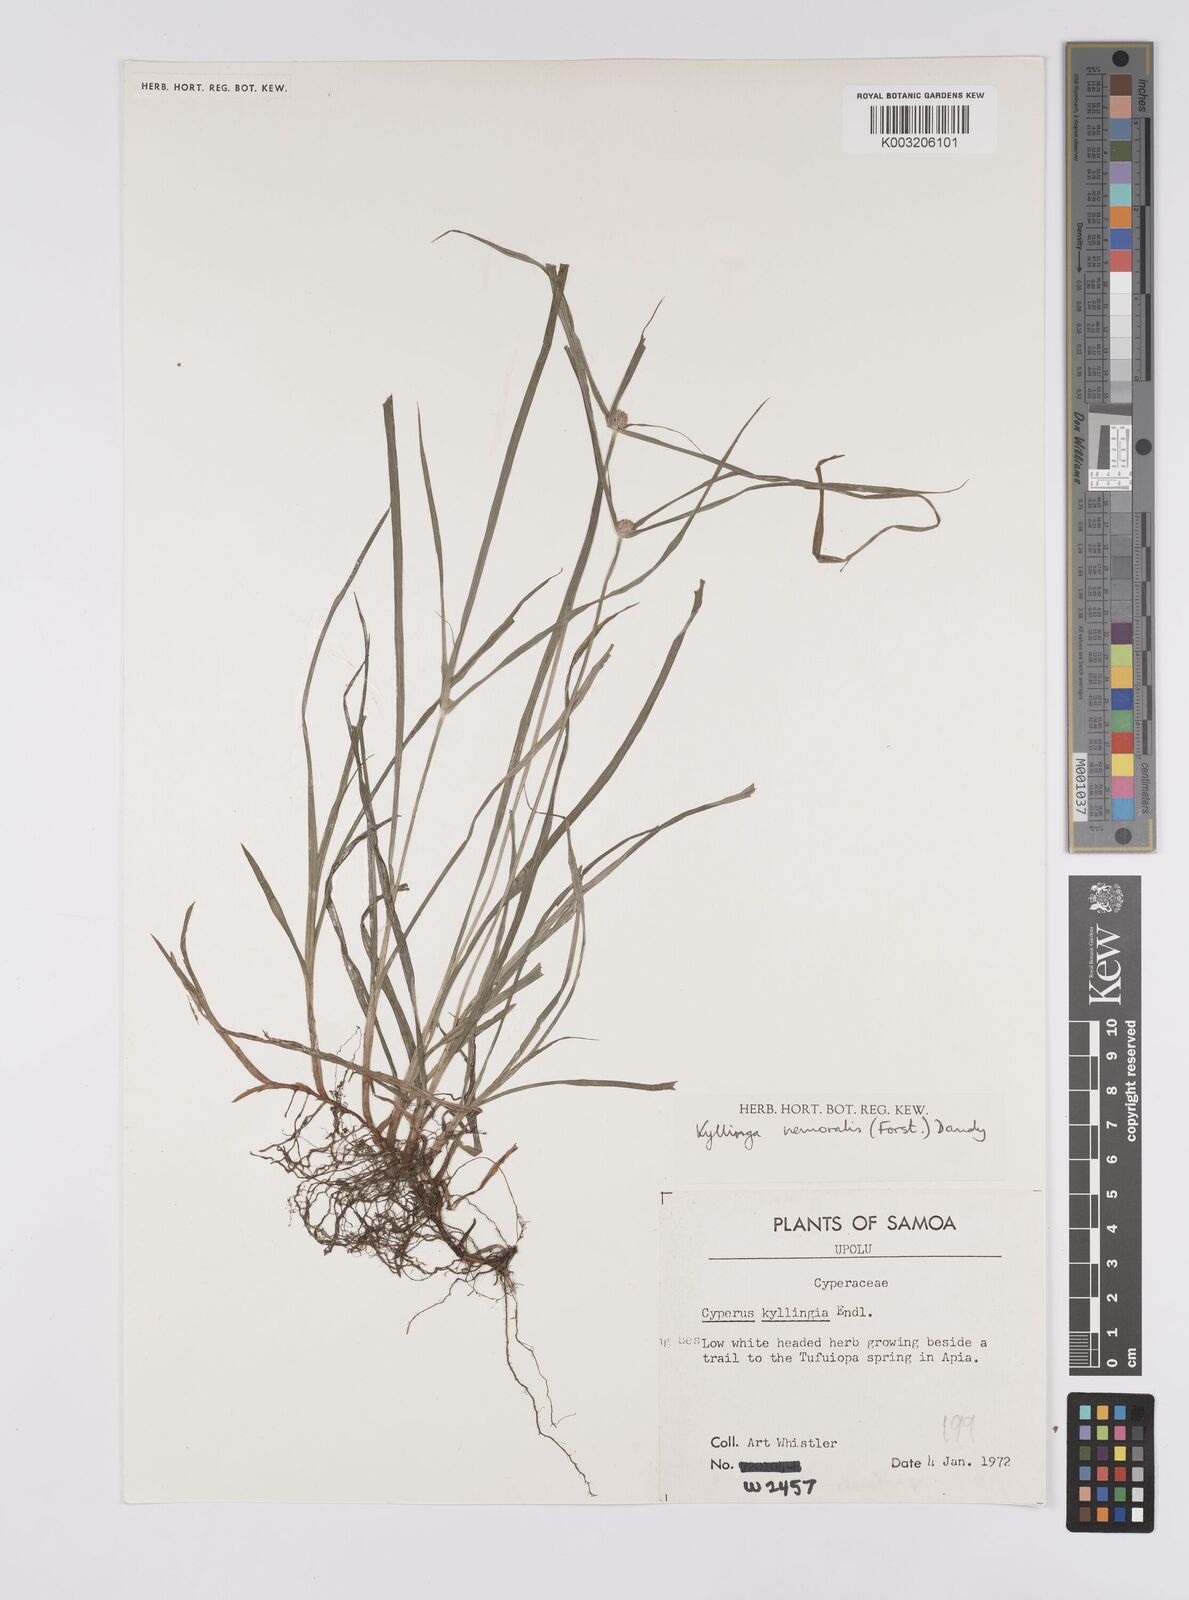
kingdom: Plantae
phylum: Tracheophyta
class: Liliopsida
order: Poales
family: Cyperaceae
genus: Cyperus
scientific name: Cyperus nemoralis
